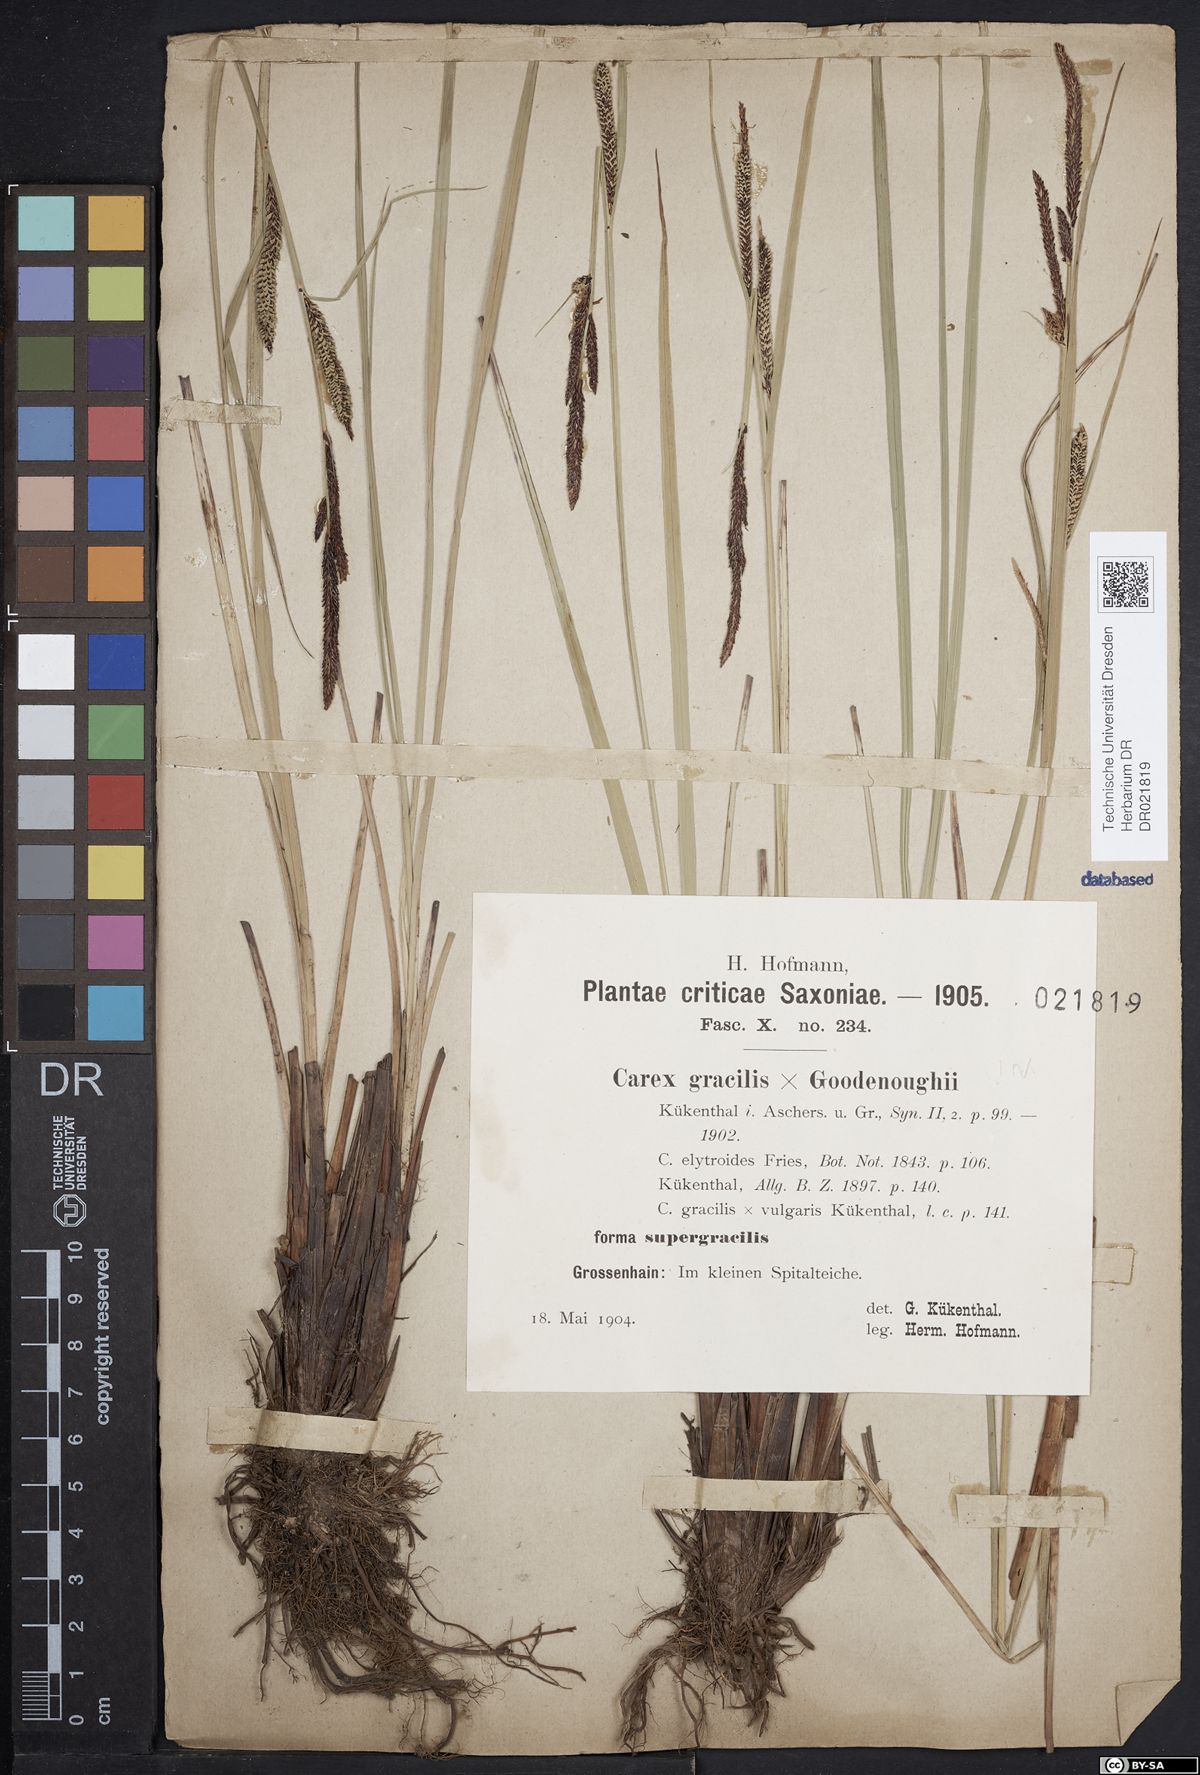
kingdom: Plantae
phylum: Tracheophyta
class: Liliopsida
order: Poales
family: Cyperaceae
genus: Carex
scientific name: Carex elytroides
